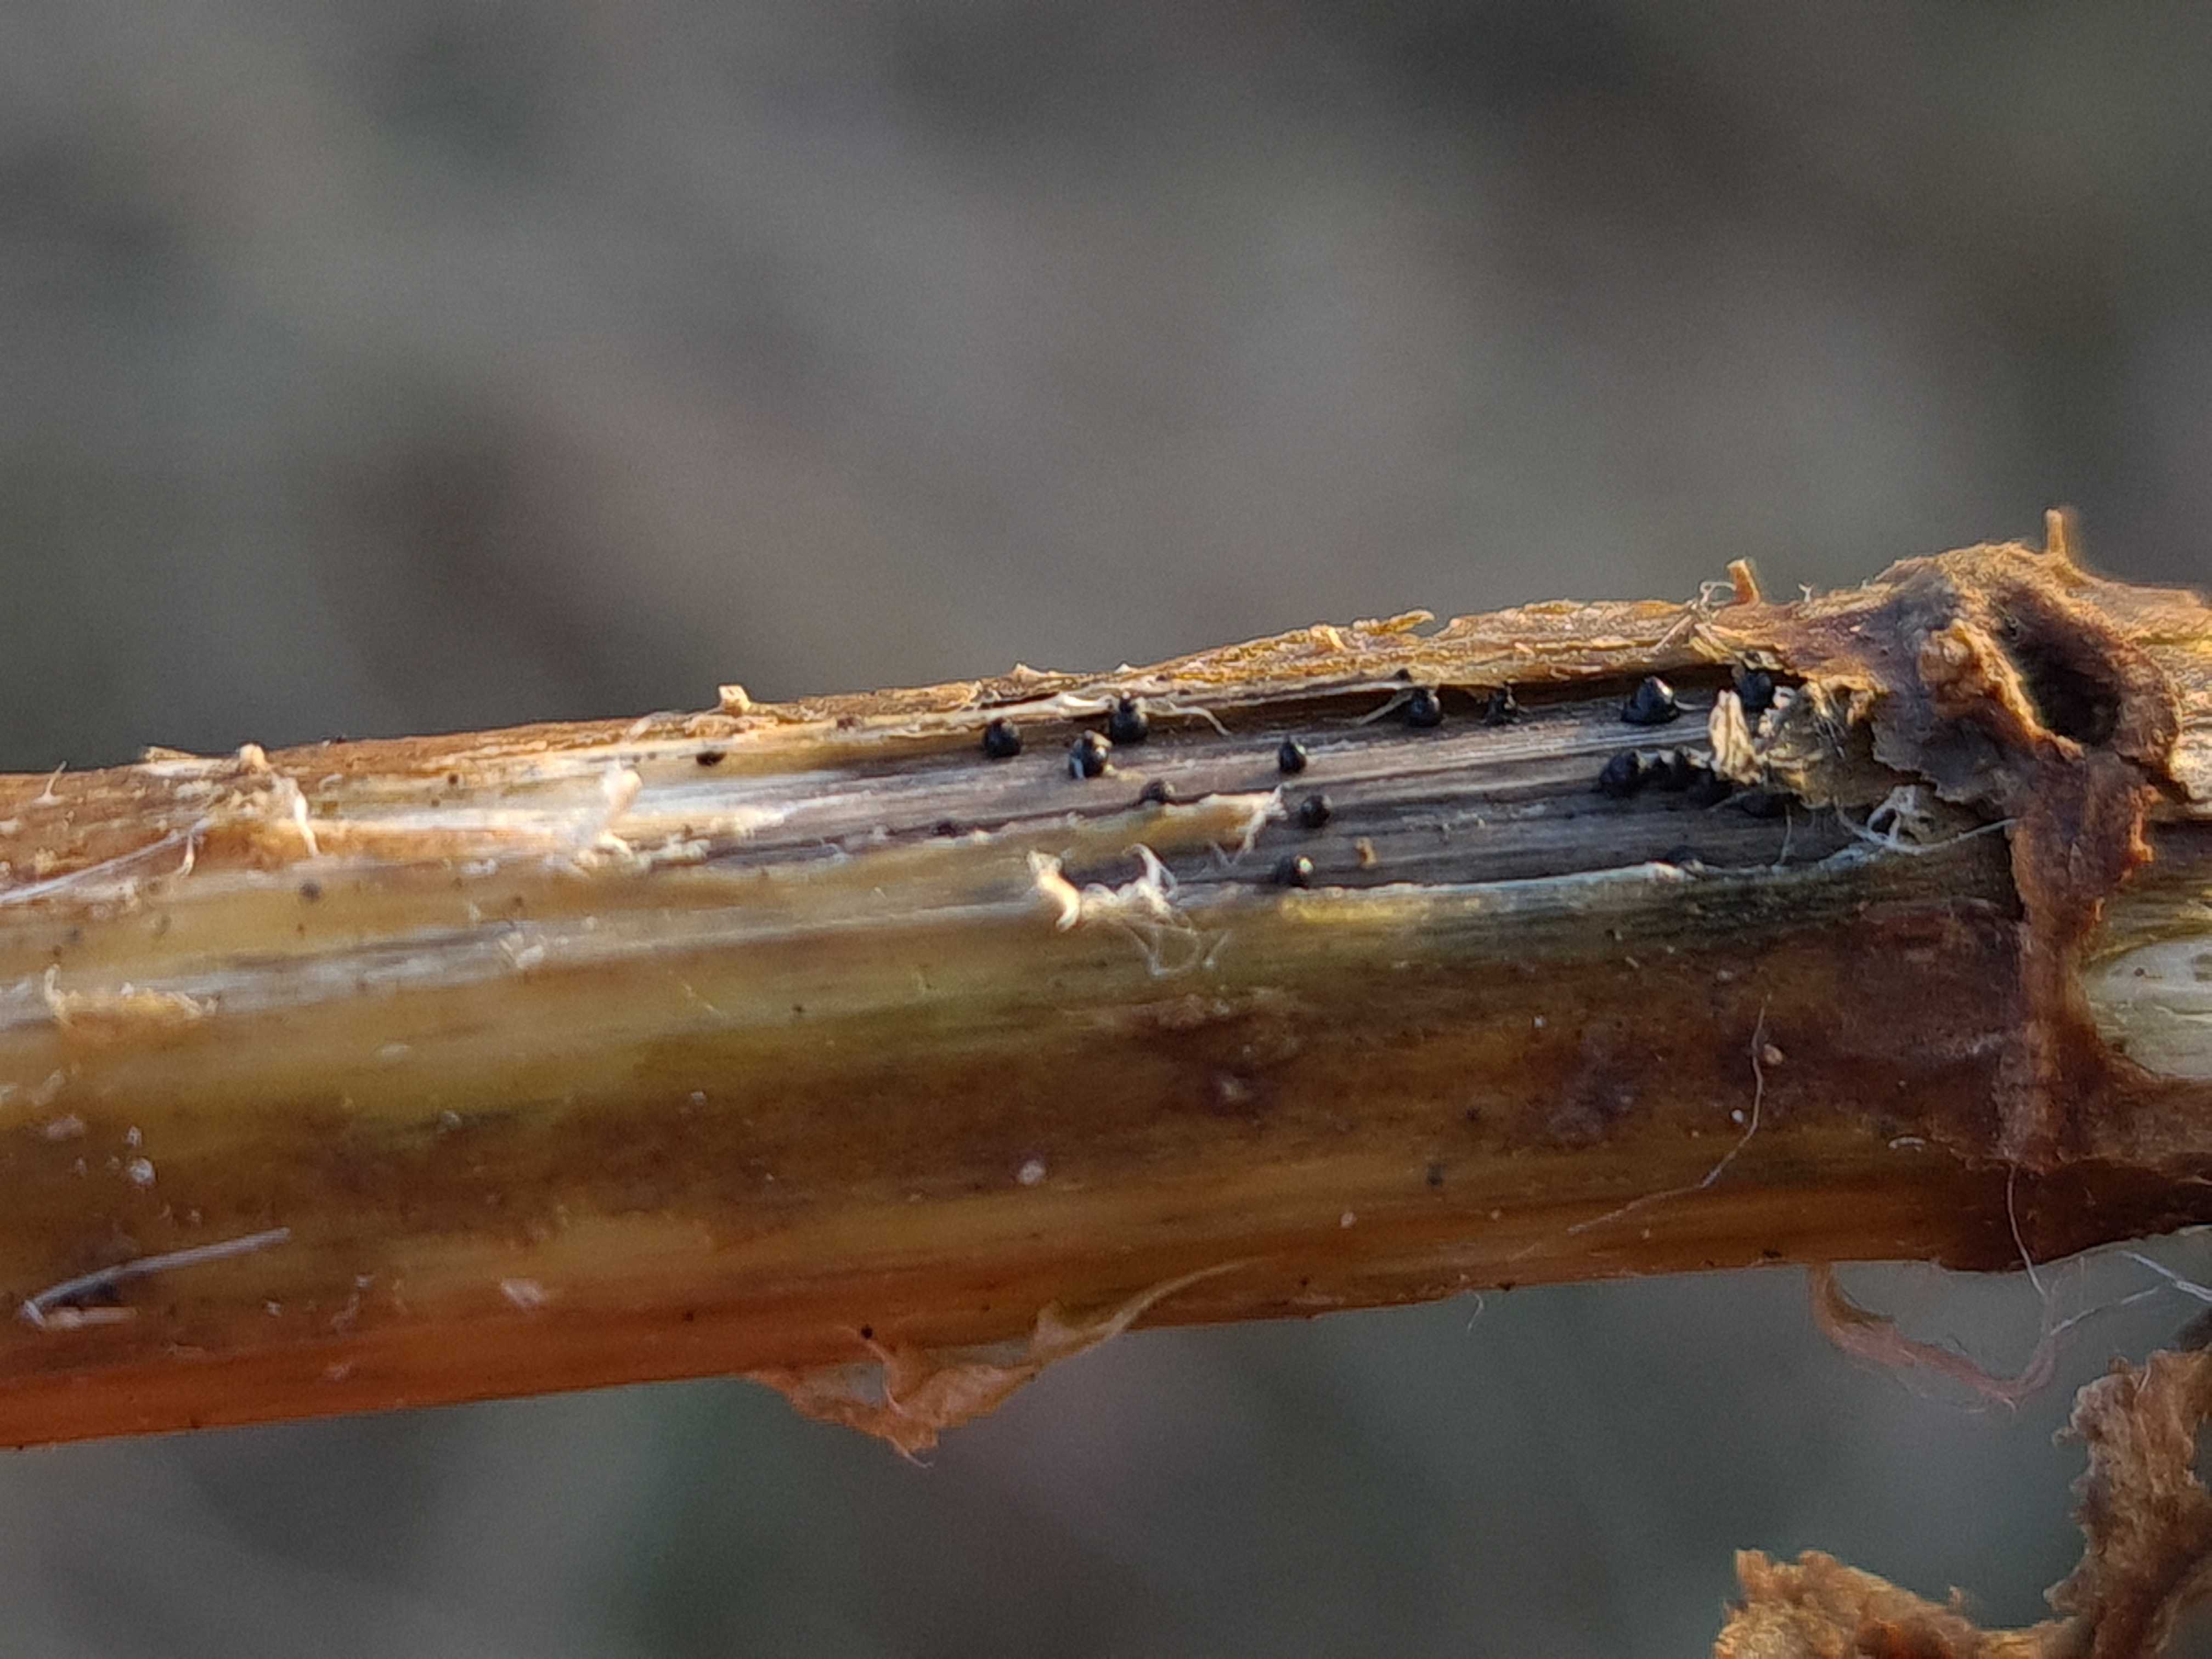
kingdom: Fungi
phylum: Ascomycota
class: Dothideomycetes
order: Pleosporales
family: Leptosphaeriaceae
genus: Leptosphaeria
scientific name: Leptosphaeria acuta
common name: spids kulkegle
